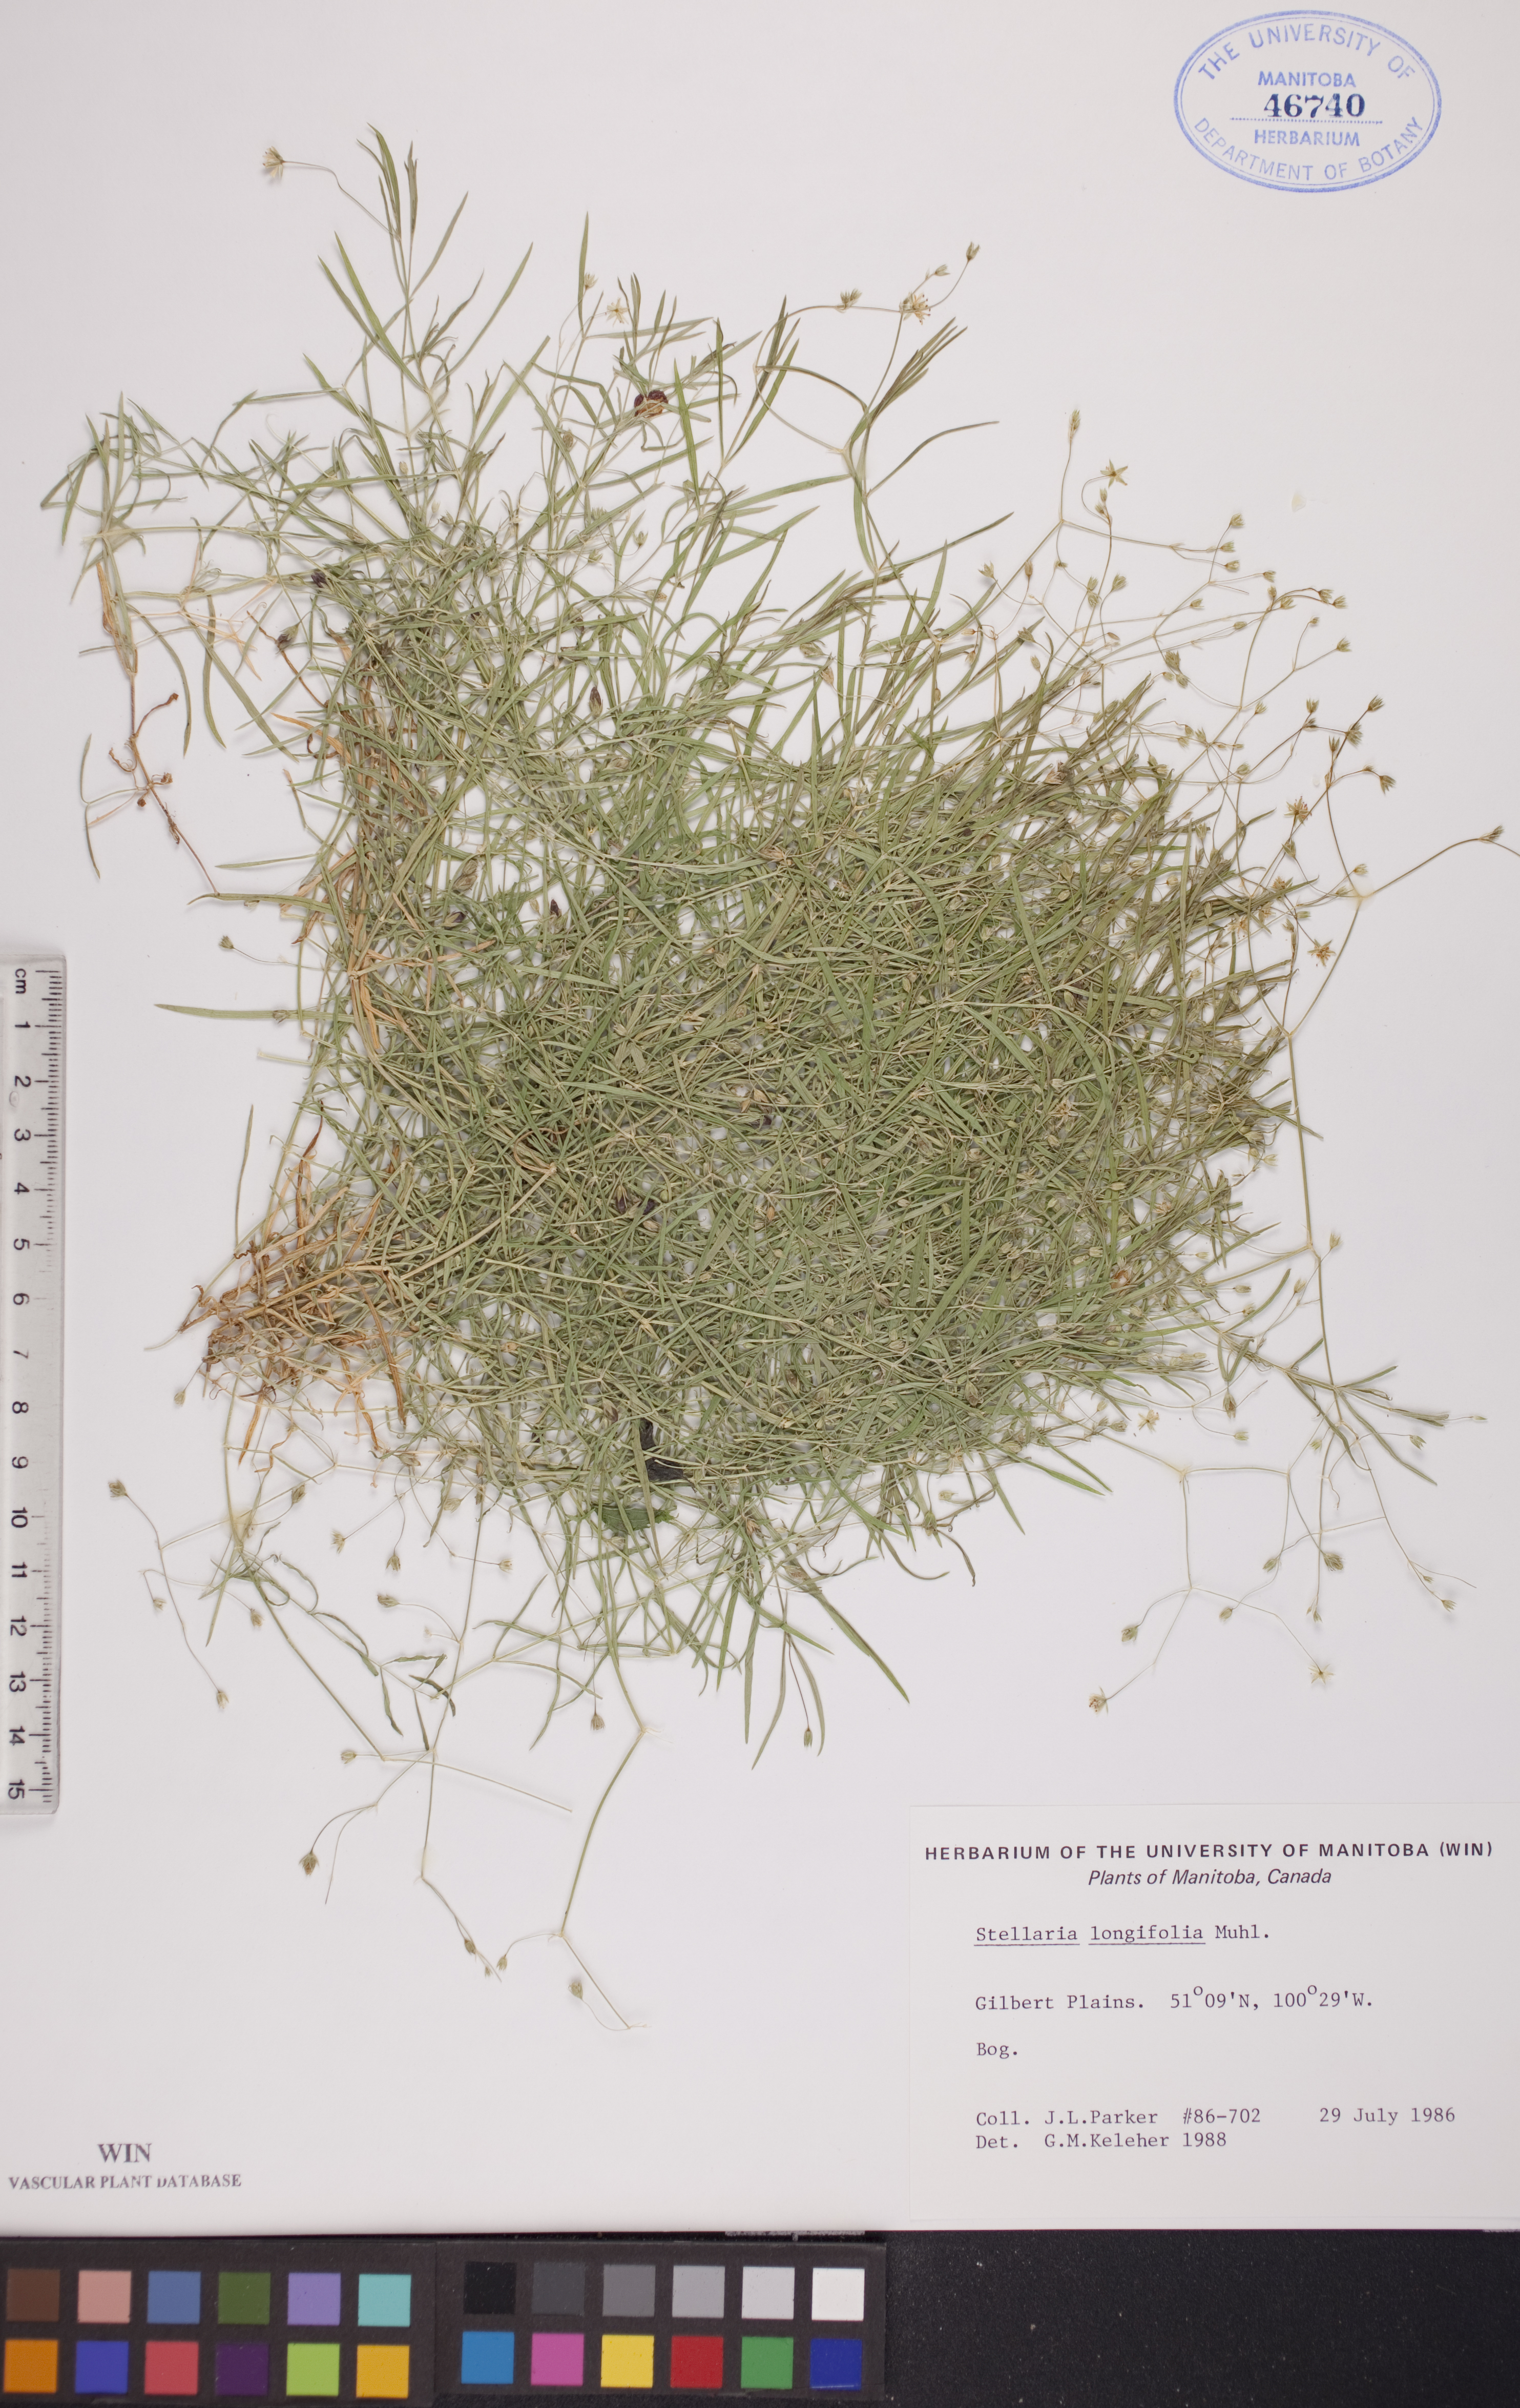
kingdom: Plantae
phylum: Tracheophyta
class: Magnoliopsida
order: Caryophyllales
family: Caryophyllaceae
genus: Stellaria
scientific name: Stellaria longifolia
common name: Long-leaved chickweed
